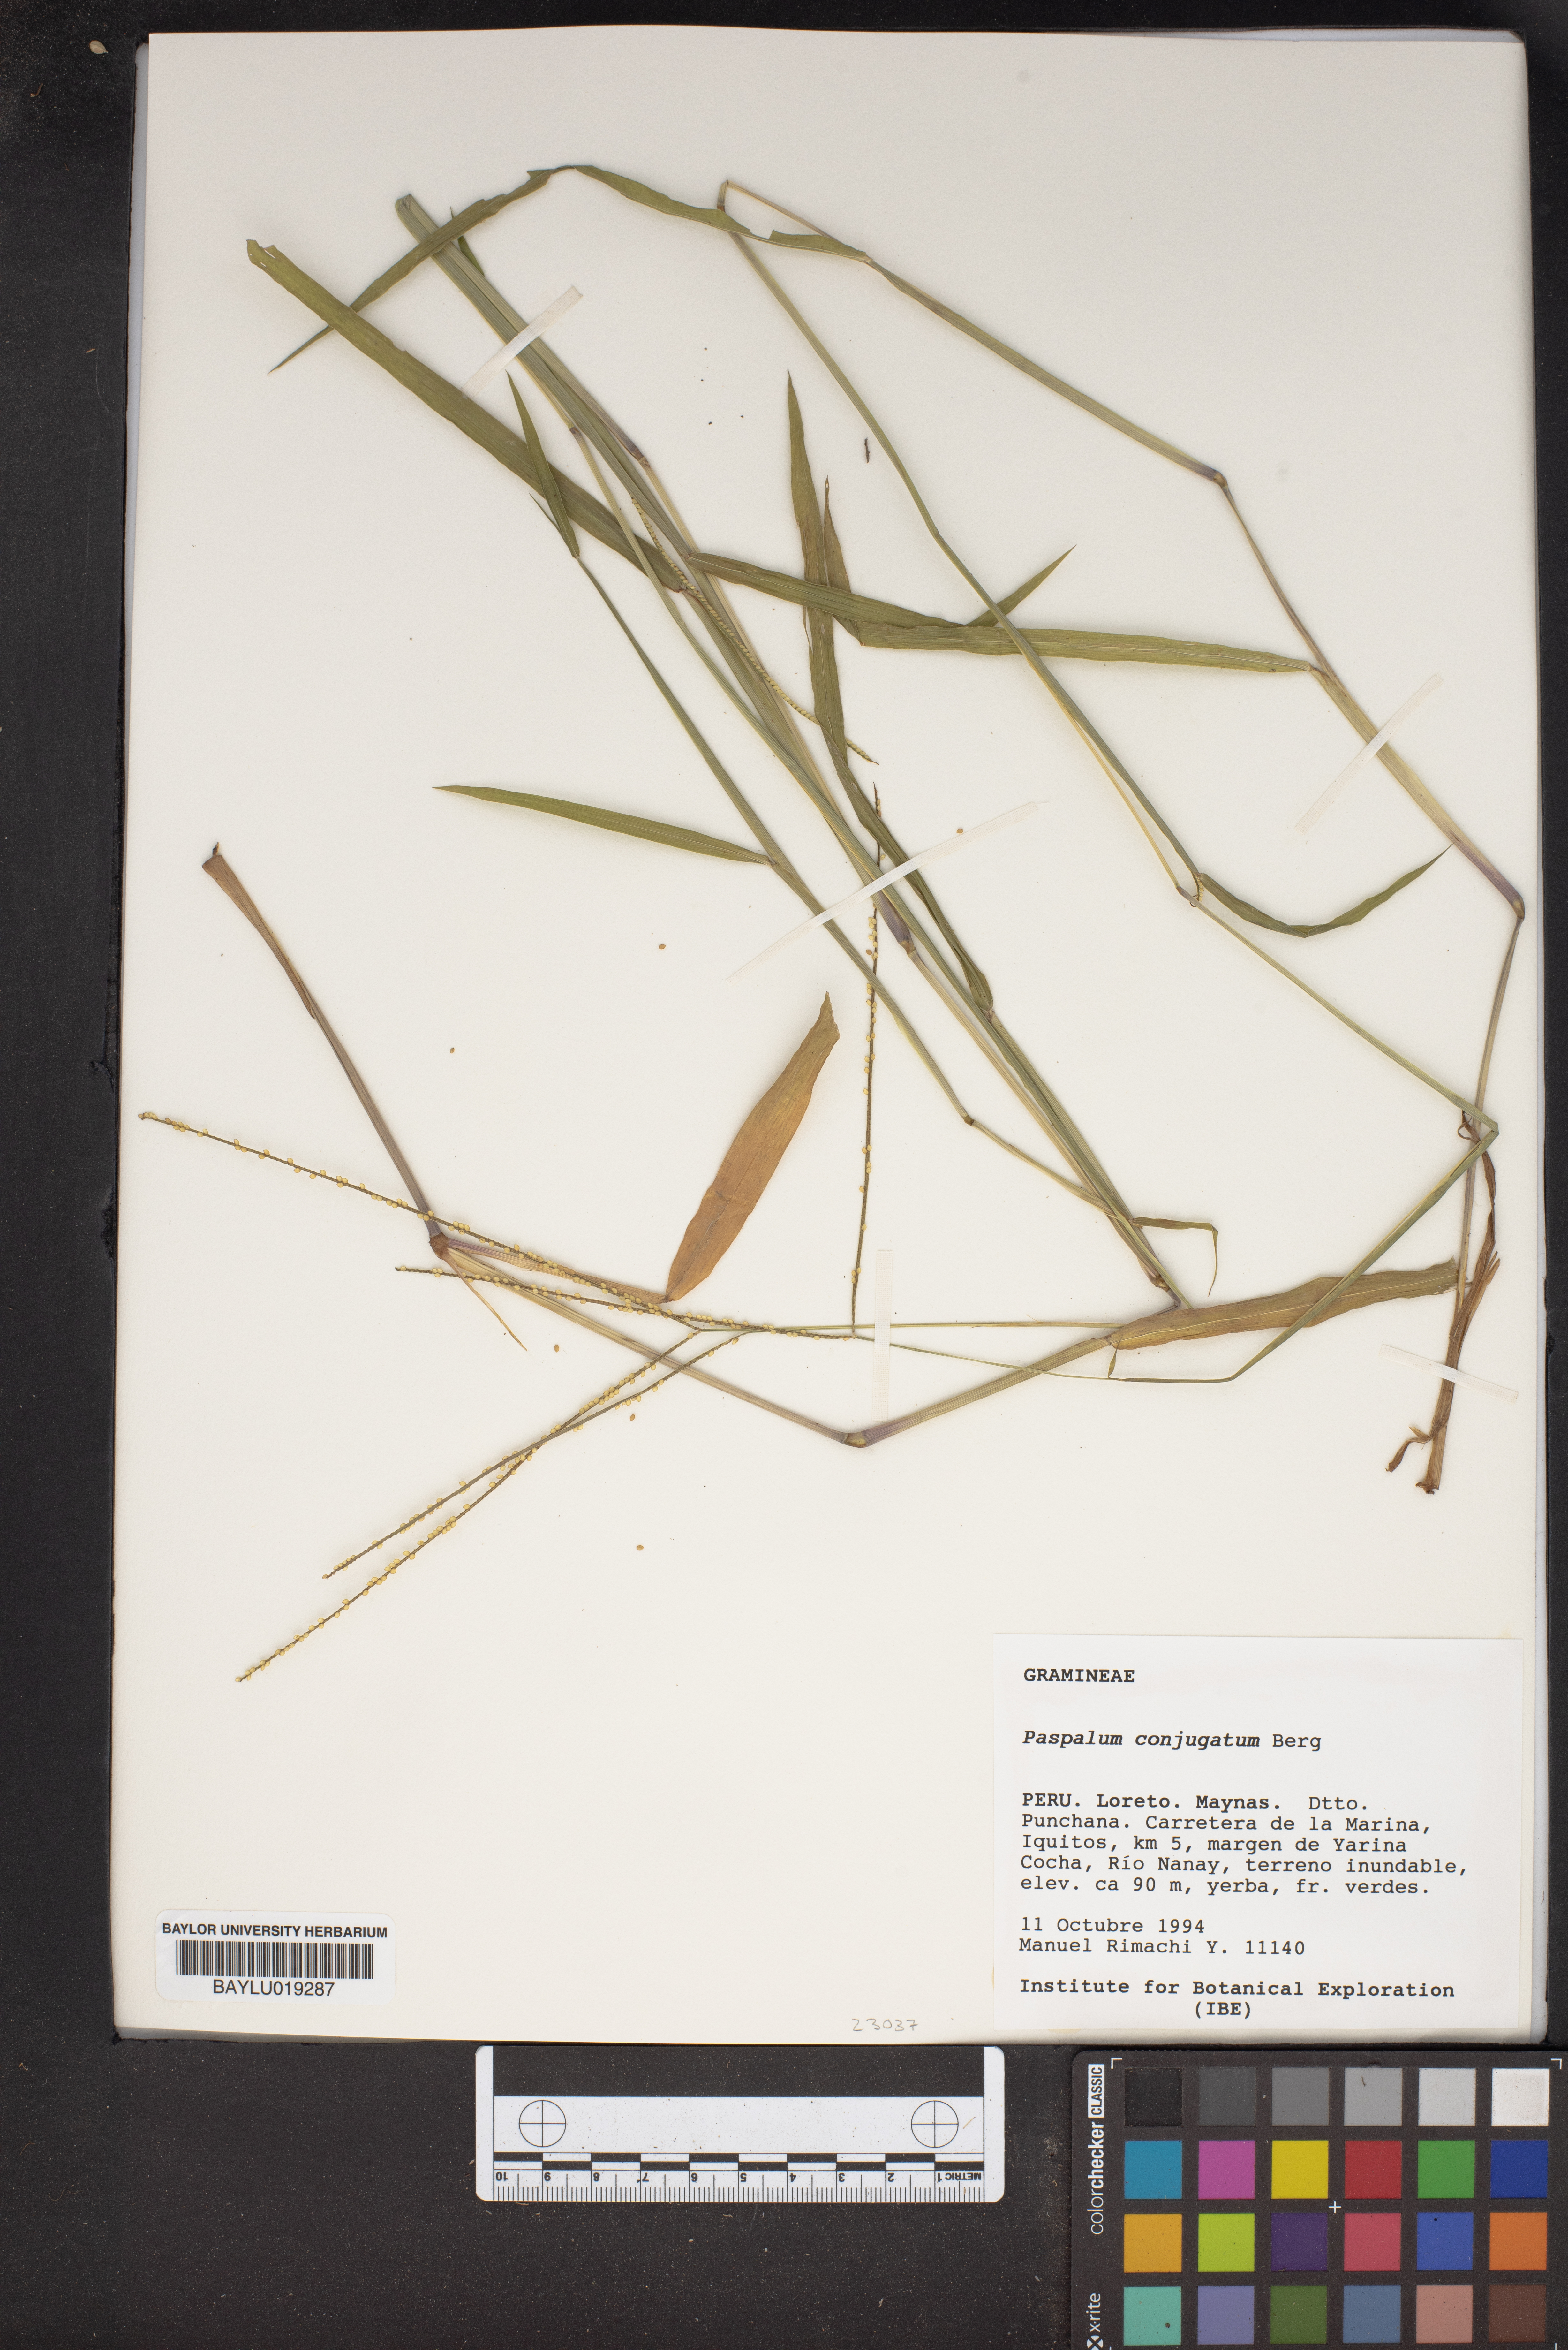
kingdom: Plantae
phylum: Tracheophyta
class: Liliopsida
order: Poales
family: Poaceae
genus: Paspalum
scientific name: Paspalum conjugatum
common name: Hilograss
